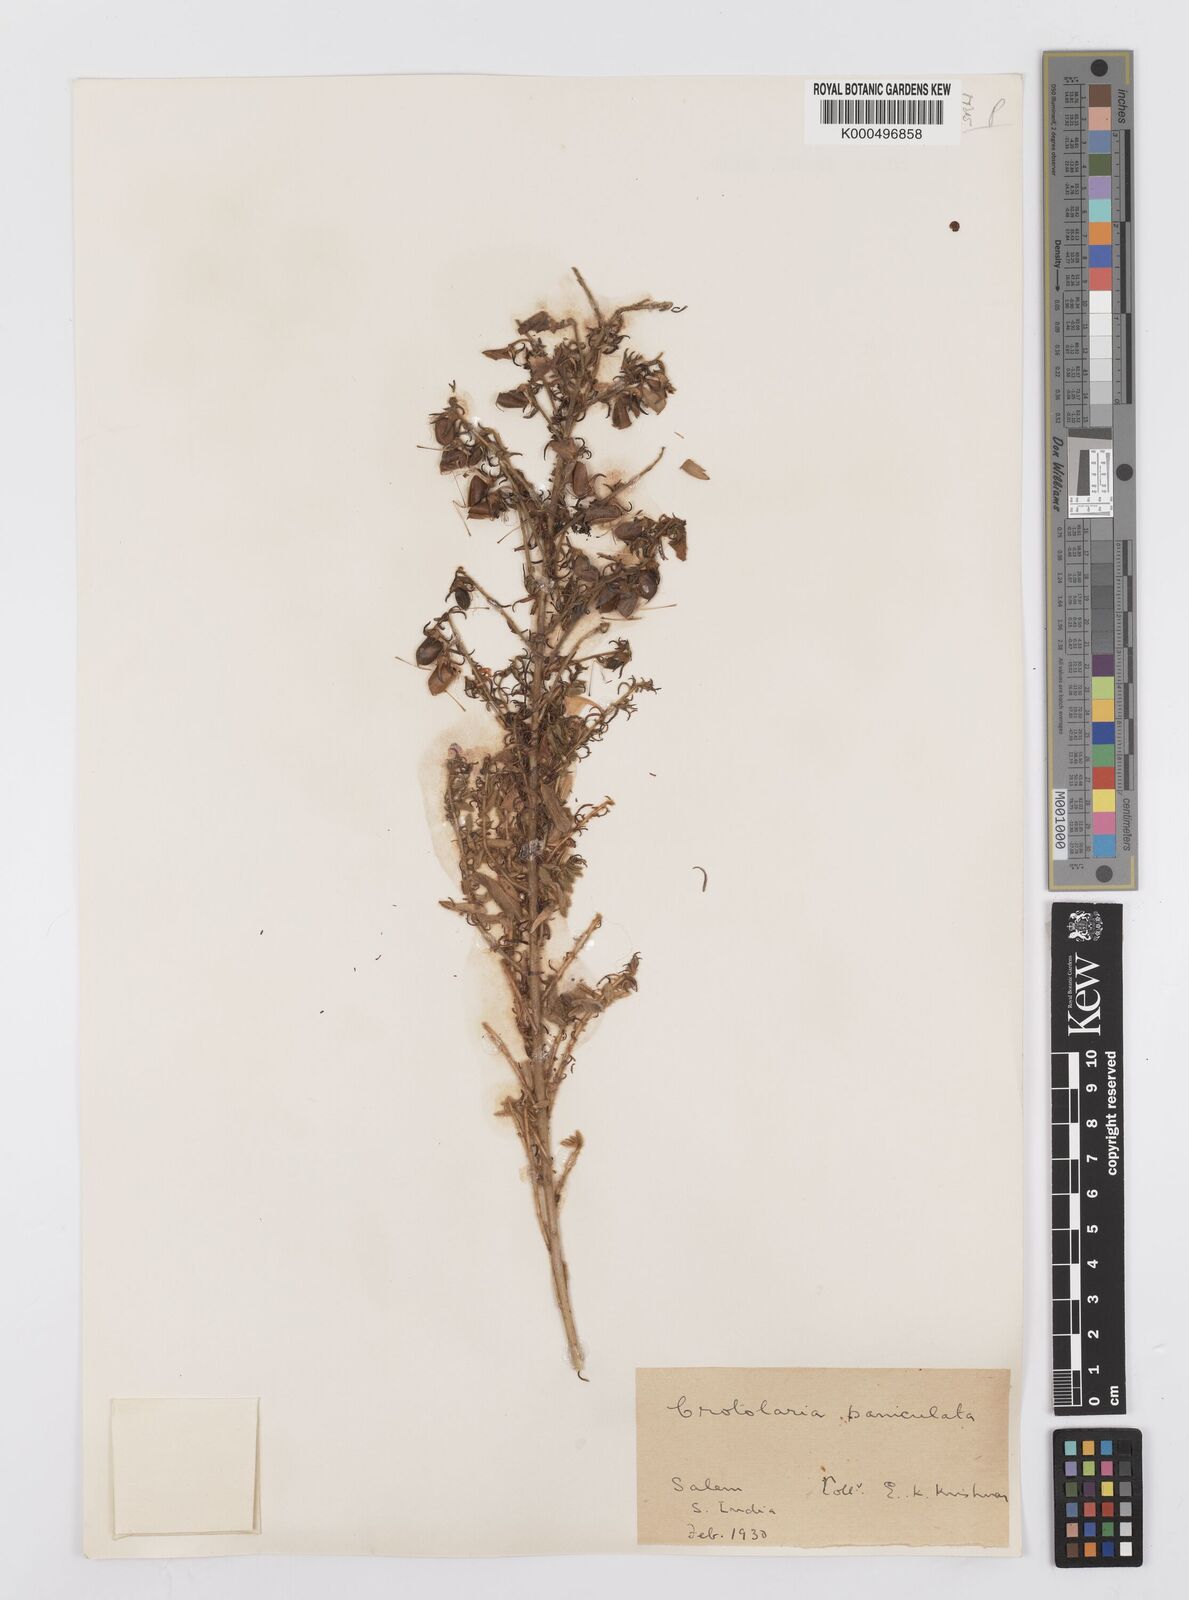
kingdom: Plantae
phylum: Tracheophyta
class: Magnoliopsida
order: Fabales
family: Fabaceae
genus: Crotalaria
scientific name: Crotalaria paniculata
